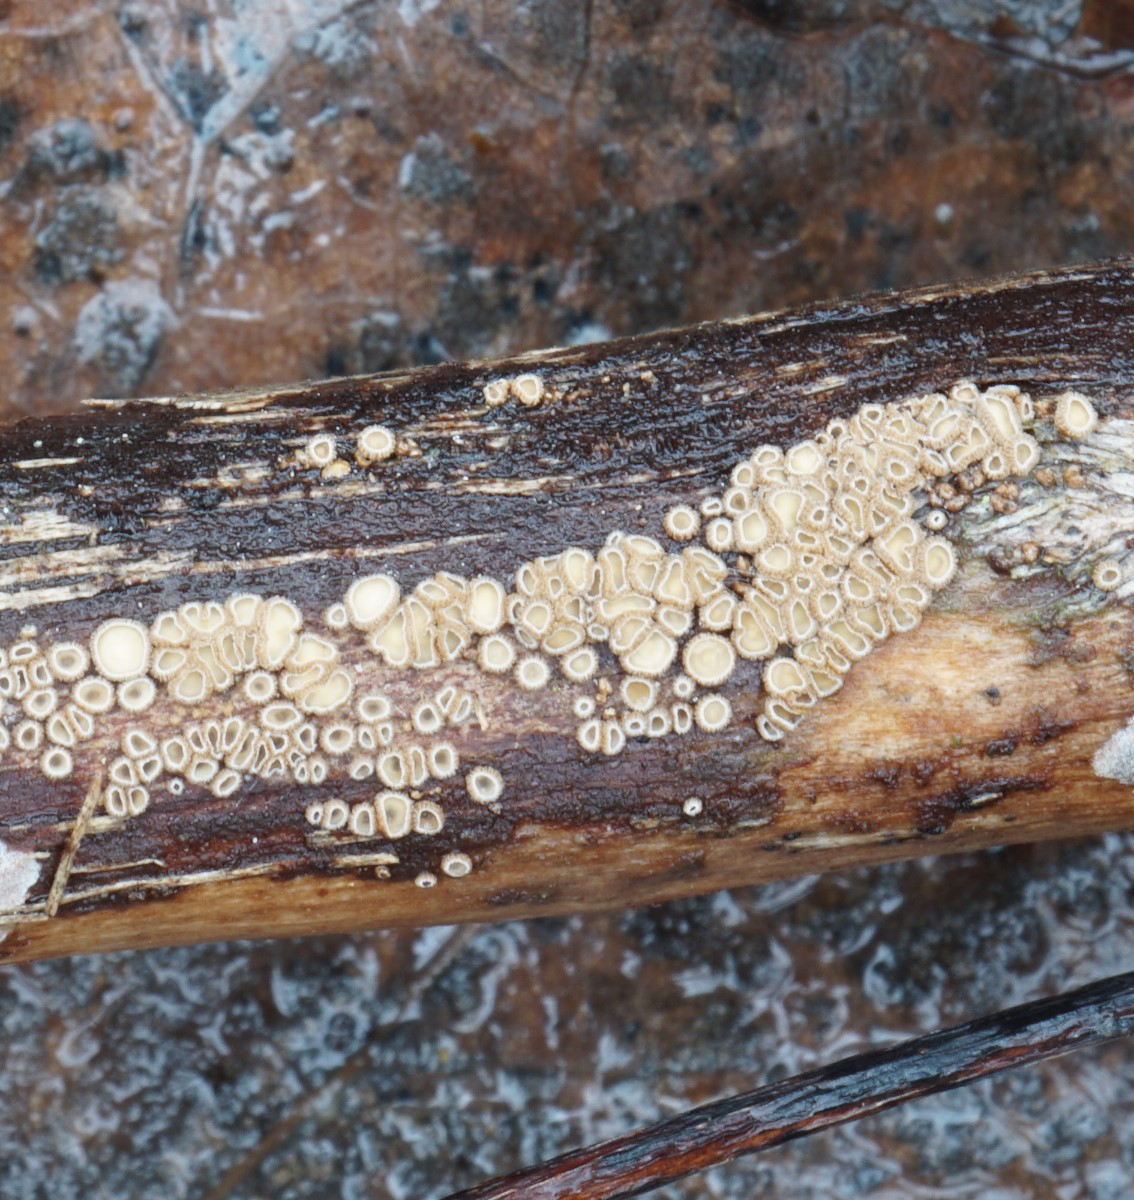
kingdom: Fungi
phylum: Ascomycota
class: Leotiomycetes
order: Helotiales
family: Solenopeziaceae
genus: Lasiobelonium
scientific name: Lasiobelonium variegatum
